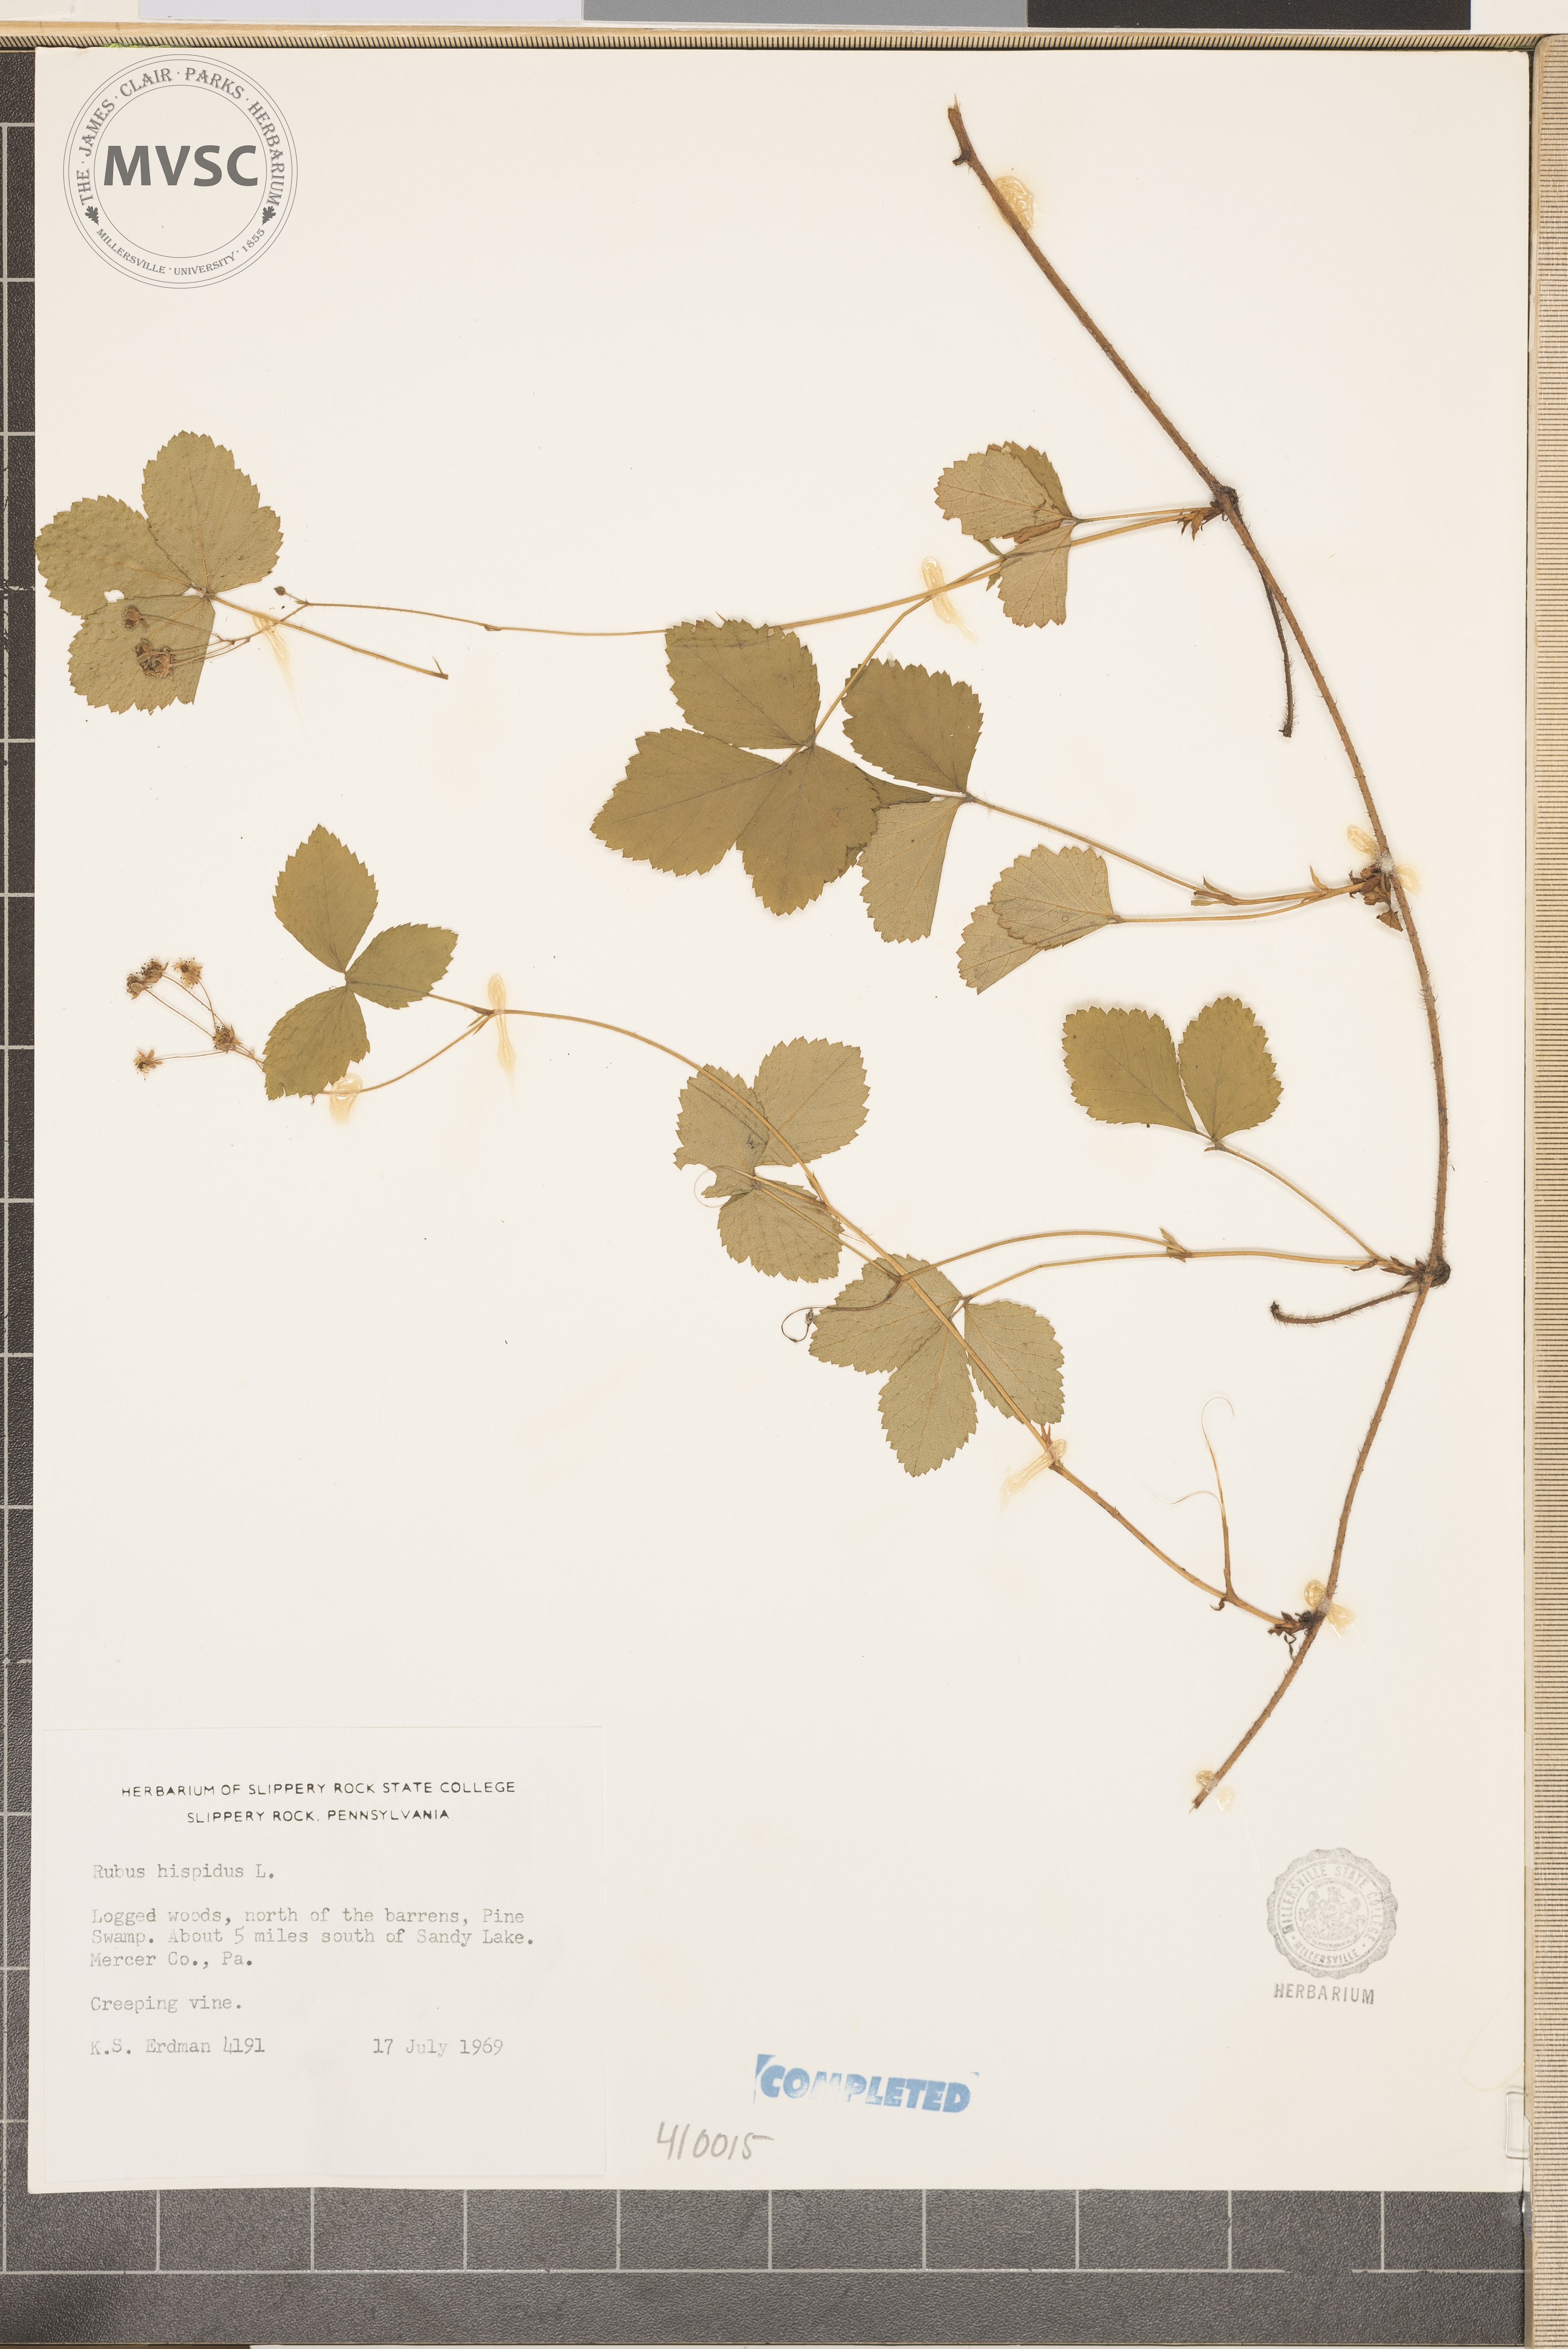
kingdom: Plantae
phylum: Tracheophyta
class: Magnoliopsida
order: Rosales
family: Rosaceae
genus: Rubus
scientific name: Rubus hispidus
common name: Running blackberry
